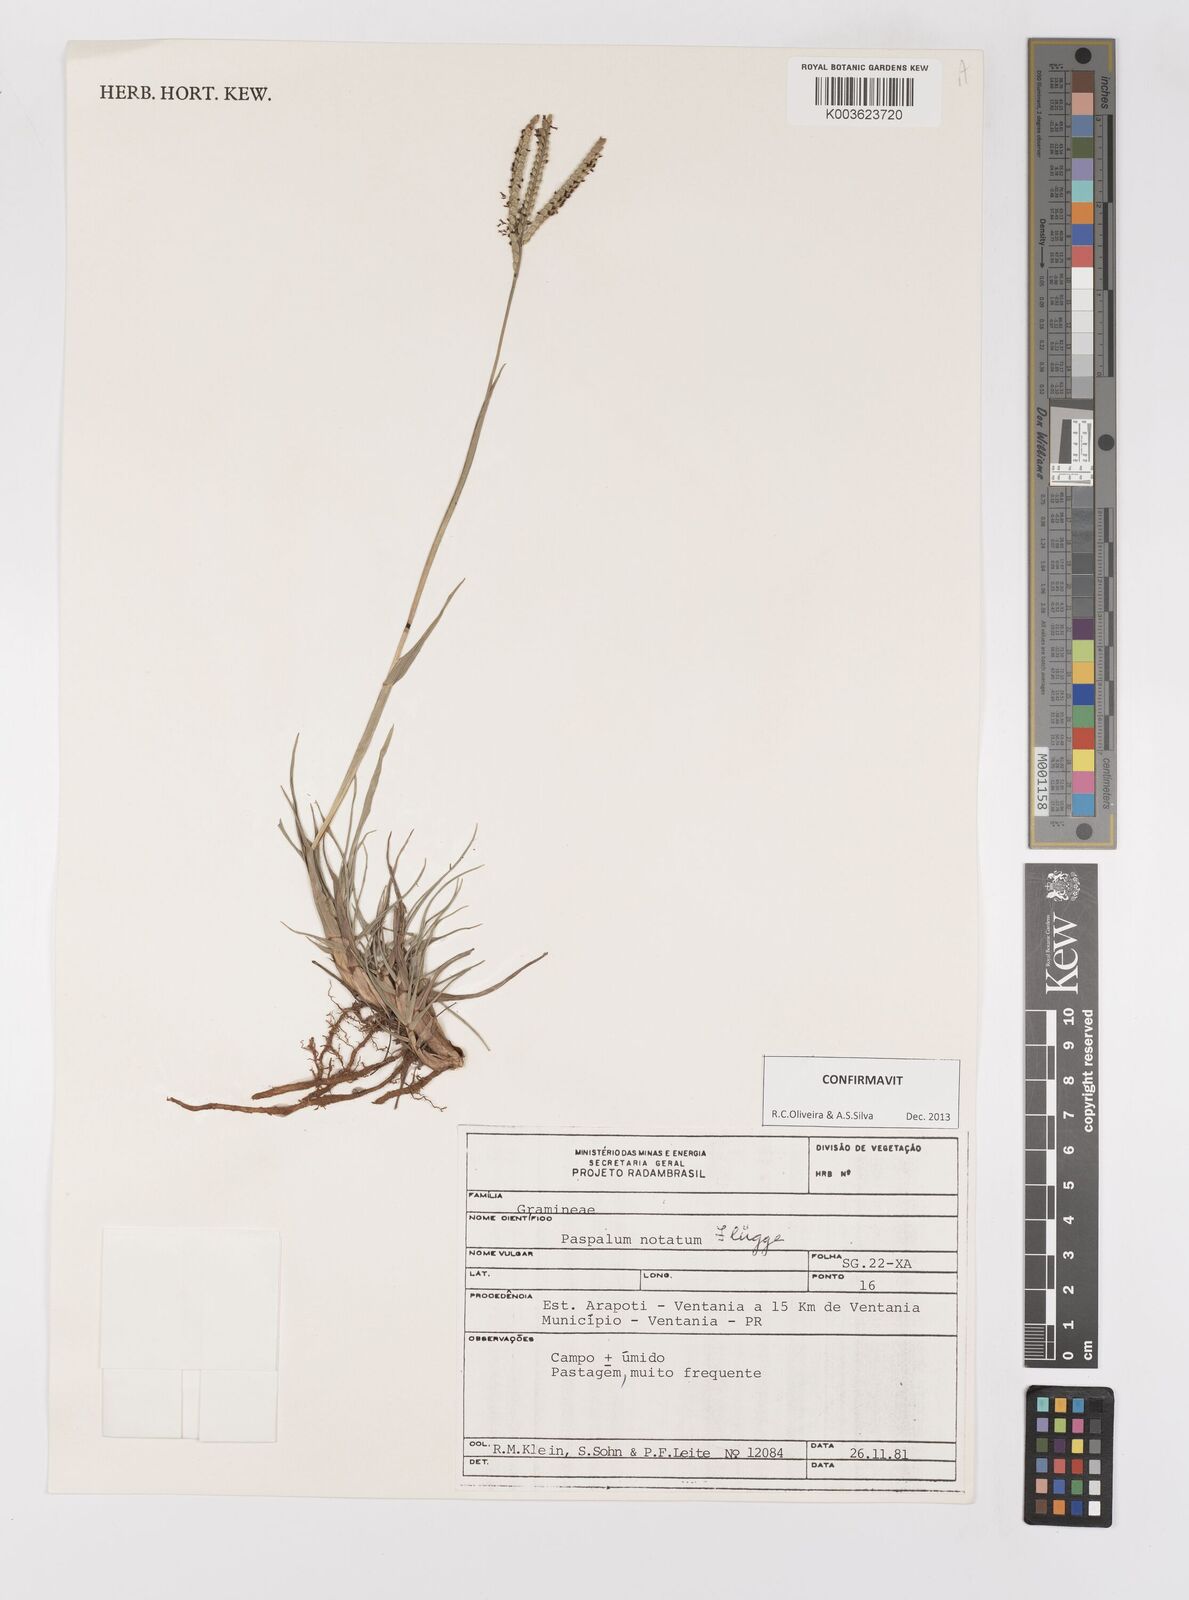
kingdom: Plantae
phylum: Tracheophyta
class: Liliopsida
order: Poales
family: Poaceae
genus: Paspalum
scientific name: Paspalum notatum
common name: Bahiagrass
